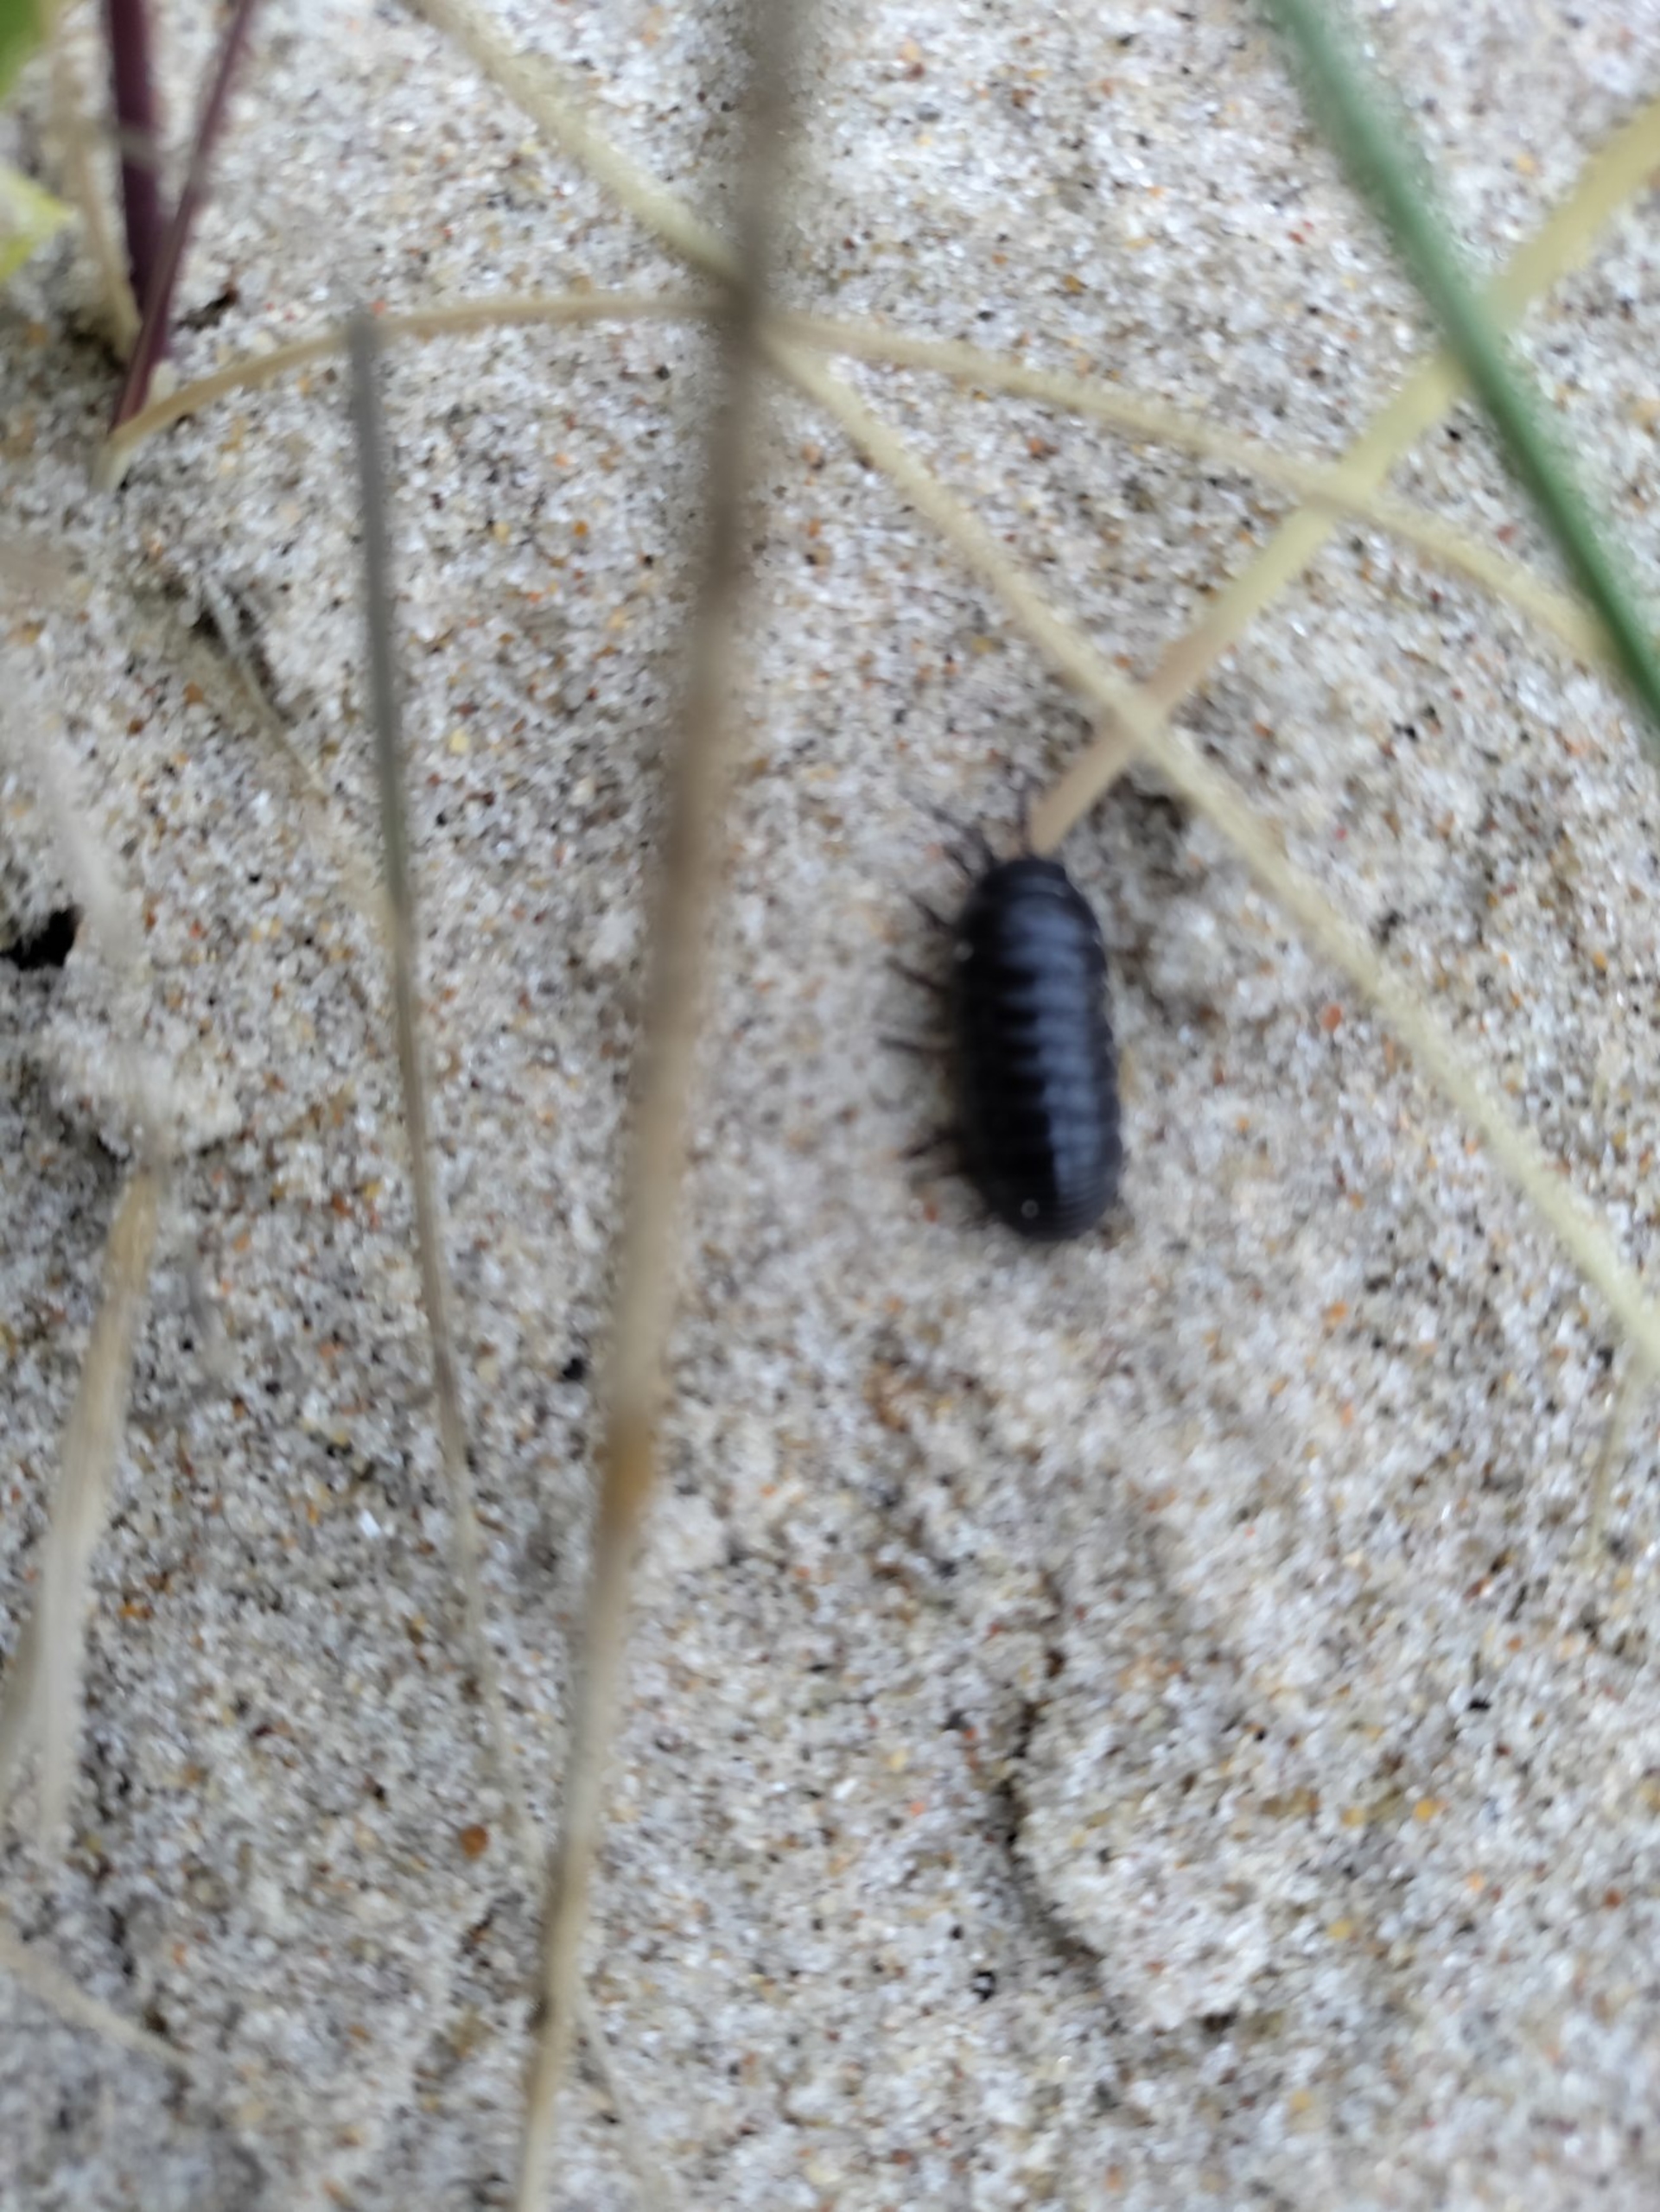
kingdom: Animalia
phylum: Arthropoda
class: Malacostraca
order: Isopoda
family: Armadillidiidae
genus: Armadillidium
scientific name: Armadillidium vulgare
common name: Almindelig kuglebænkebider
